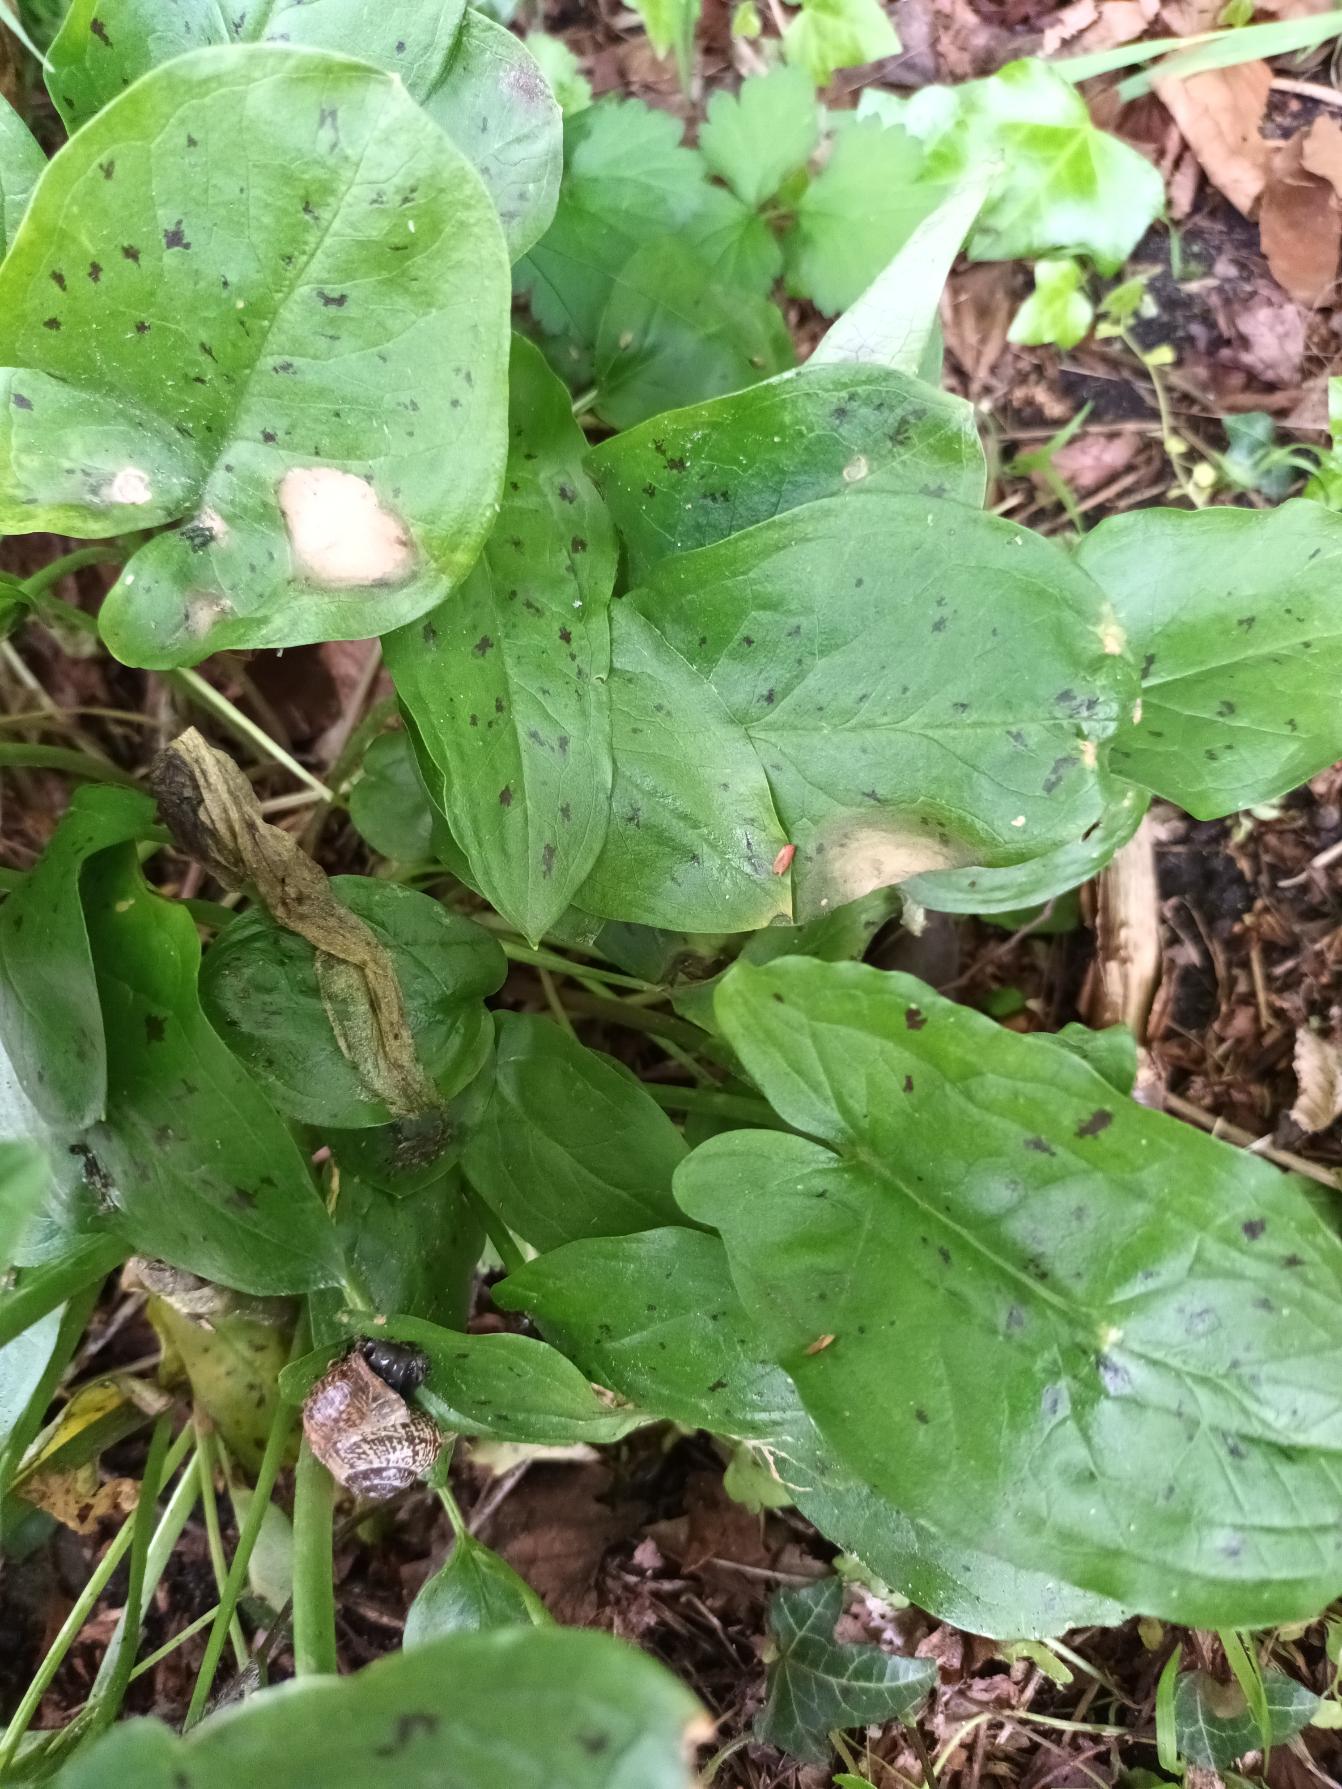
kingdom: Plantae
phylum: Tracheophyta
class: Liliopsida
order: Alismatales
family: Araceae
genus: Arum
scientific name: Arum maculatum
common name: Plettet arum
